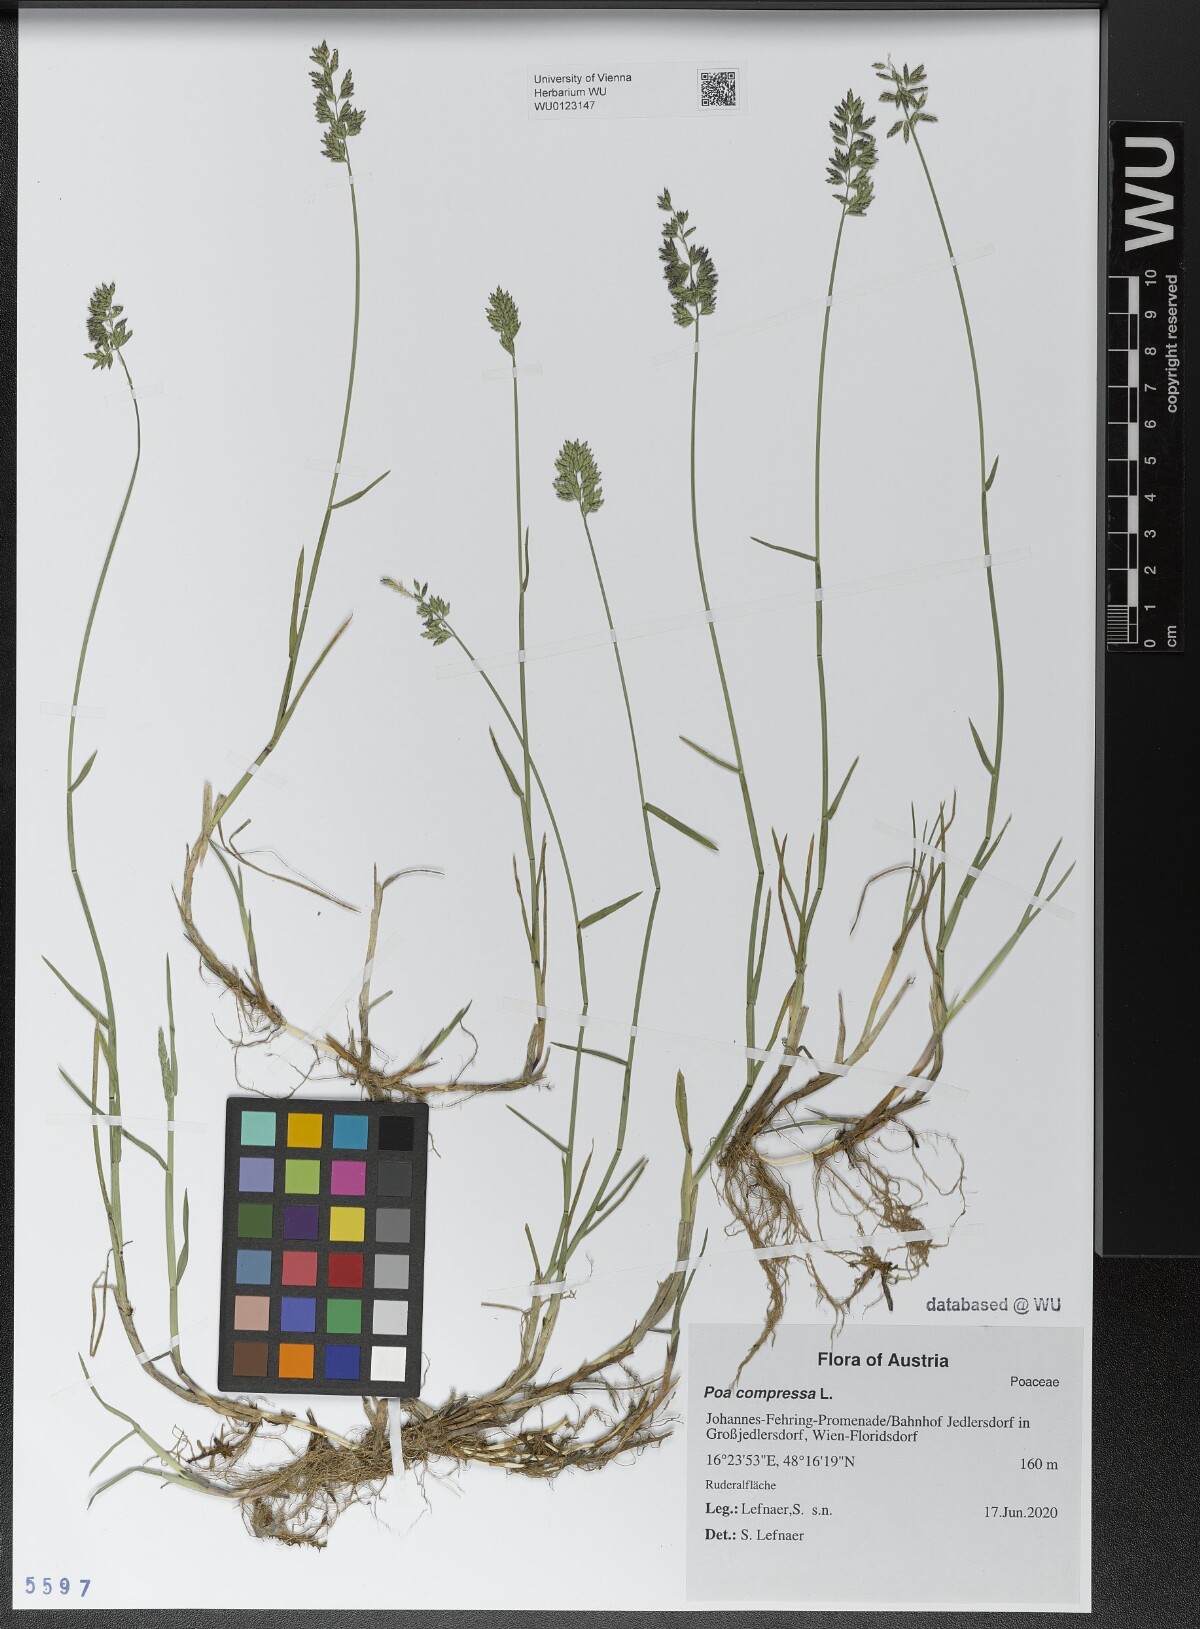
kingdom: Plantae
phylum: Tracheophyta
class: Liliopsida
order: Poales
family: Poaceae
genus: Poa
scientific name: Poa compressa
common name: Canada bluegrass
